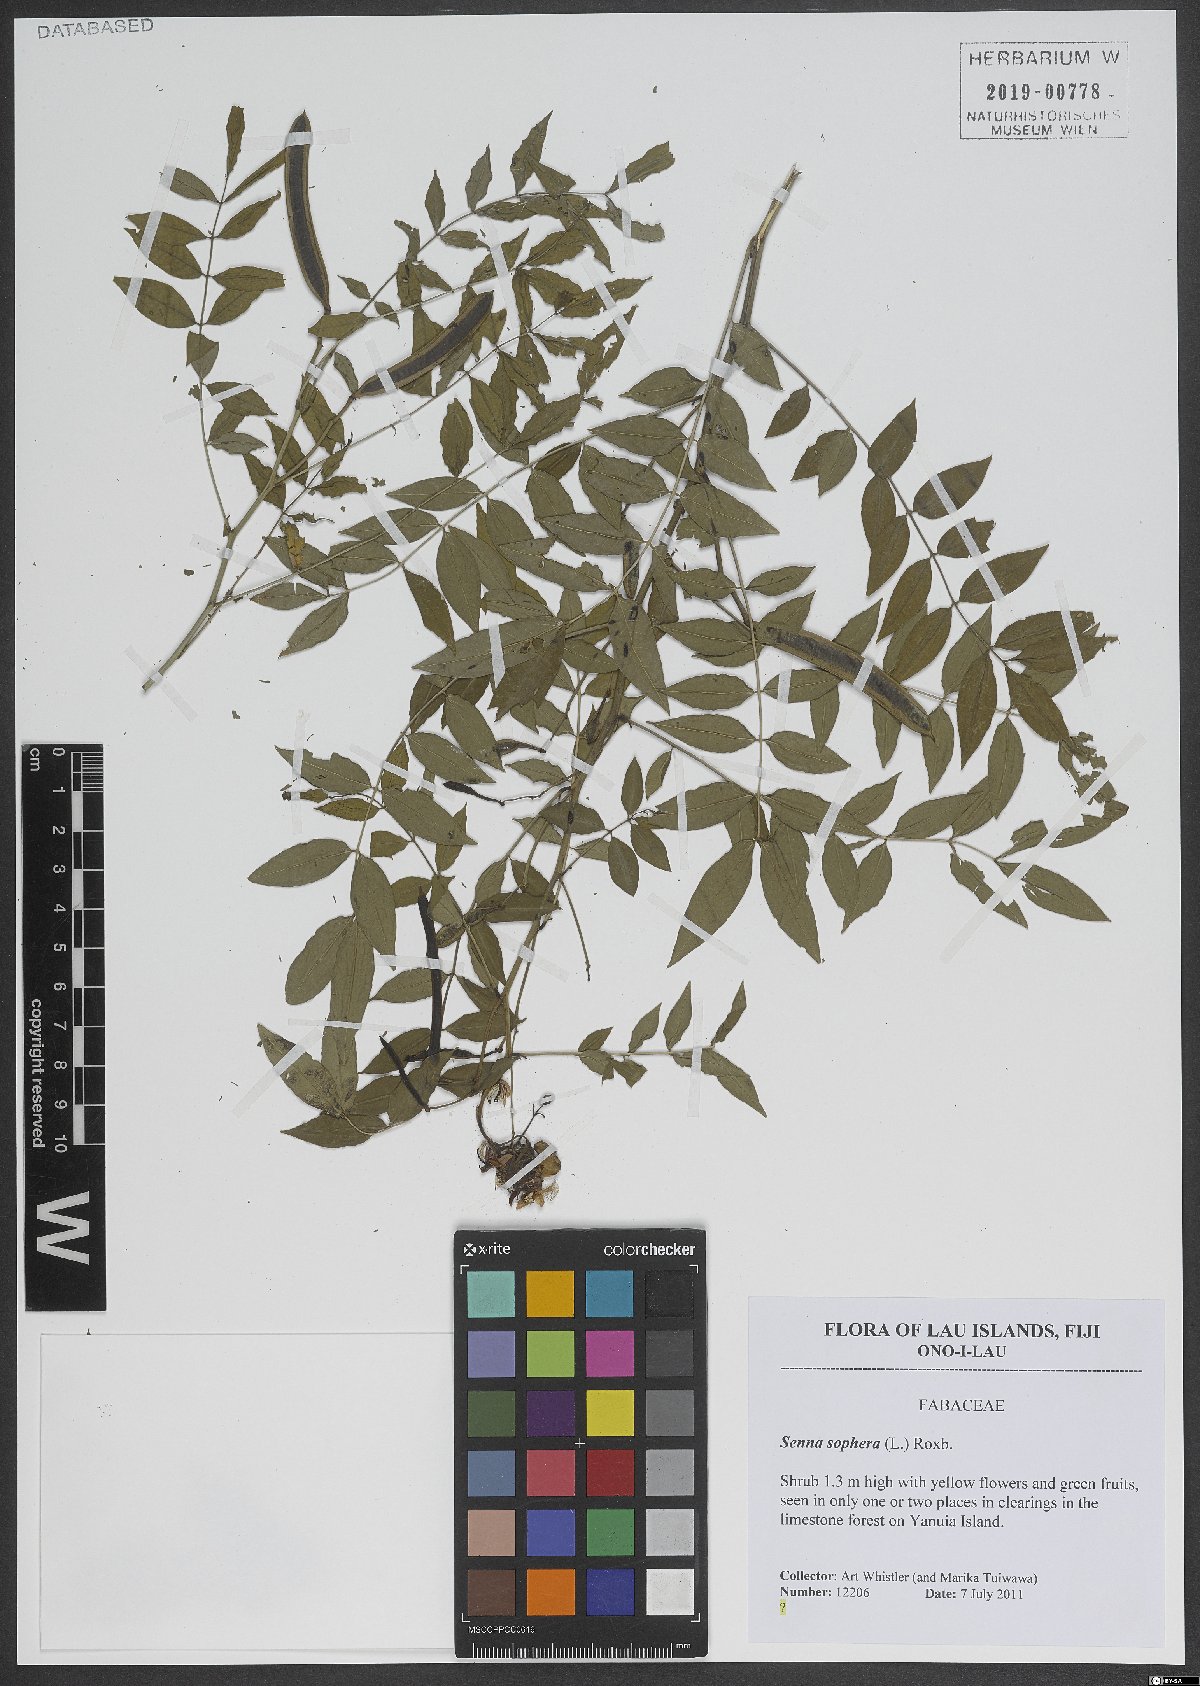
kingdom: Plantae
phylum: Tracheophyta
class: Magnoliopsida
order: Fabales
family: Fabaceae
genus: Senna
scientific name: Senna sophera
